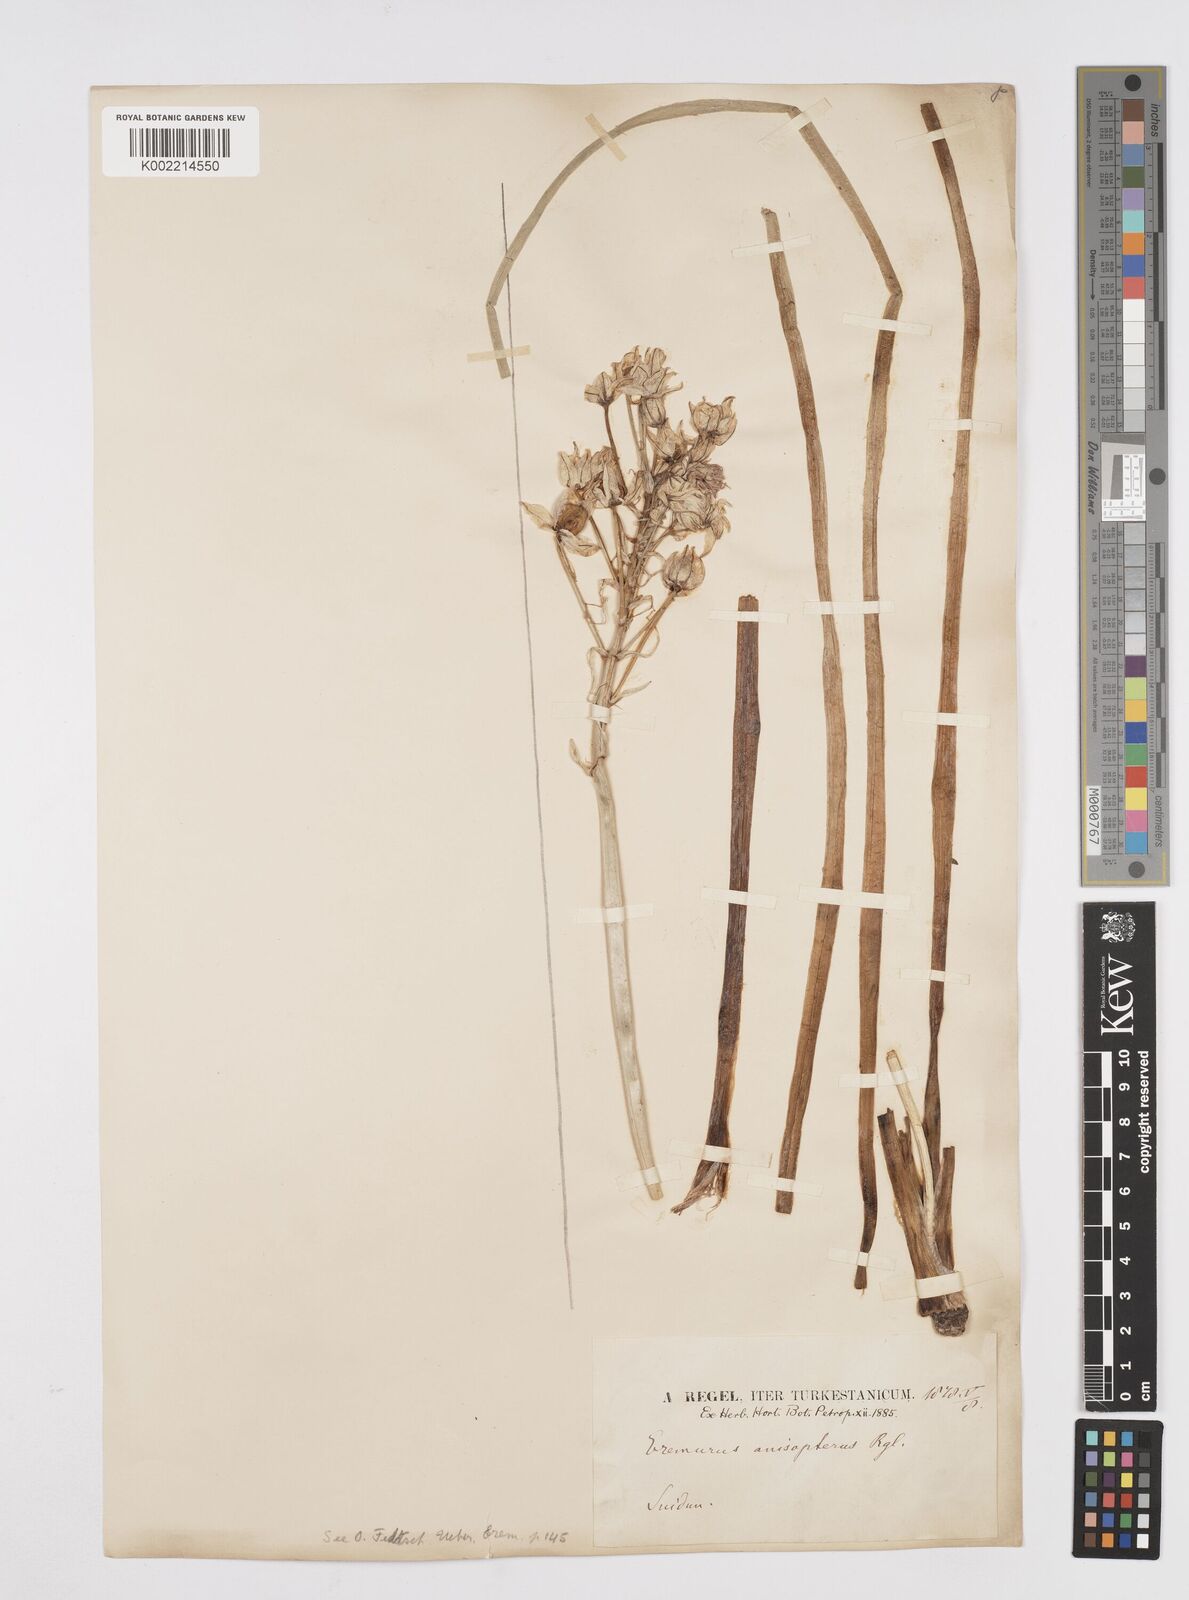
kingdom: Plantae
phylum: Tracheophyta
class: Liliopsida
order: Asparagales
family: Asphodelaceae
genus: Eremurus
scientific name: Eremurus anisopterus
